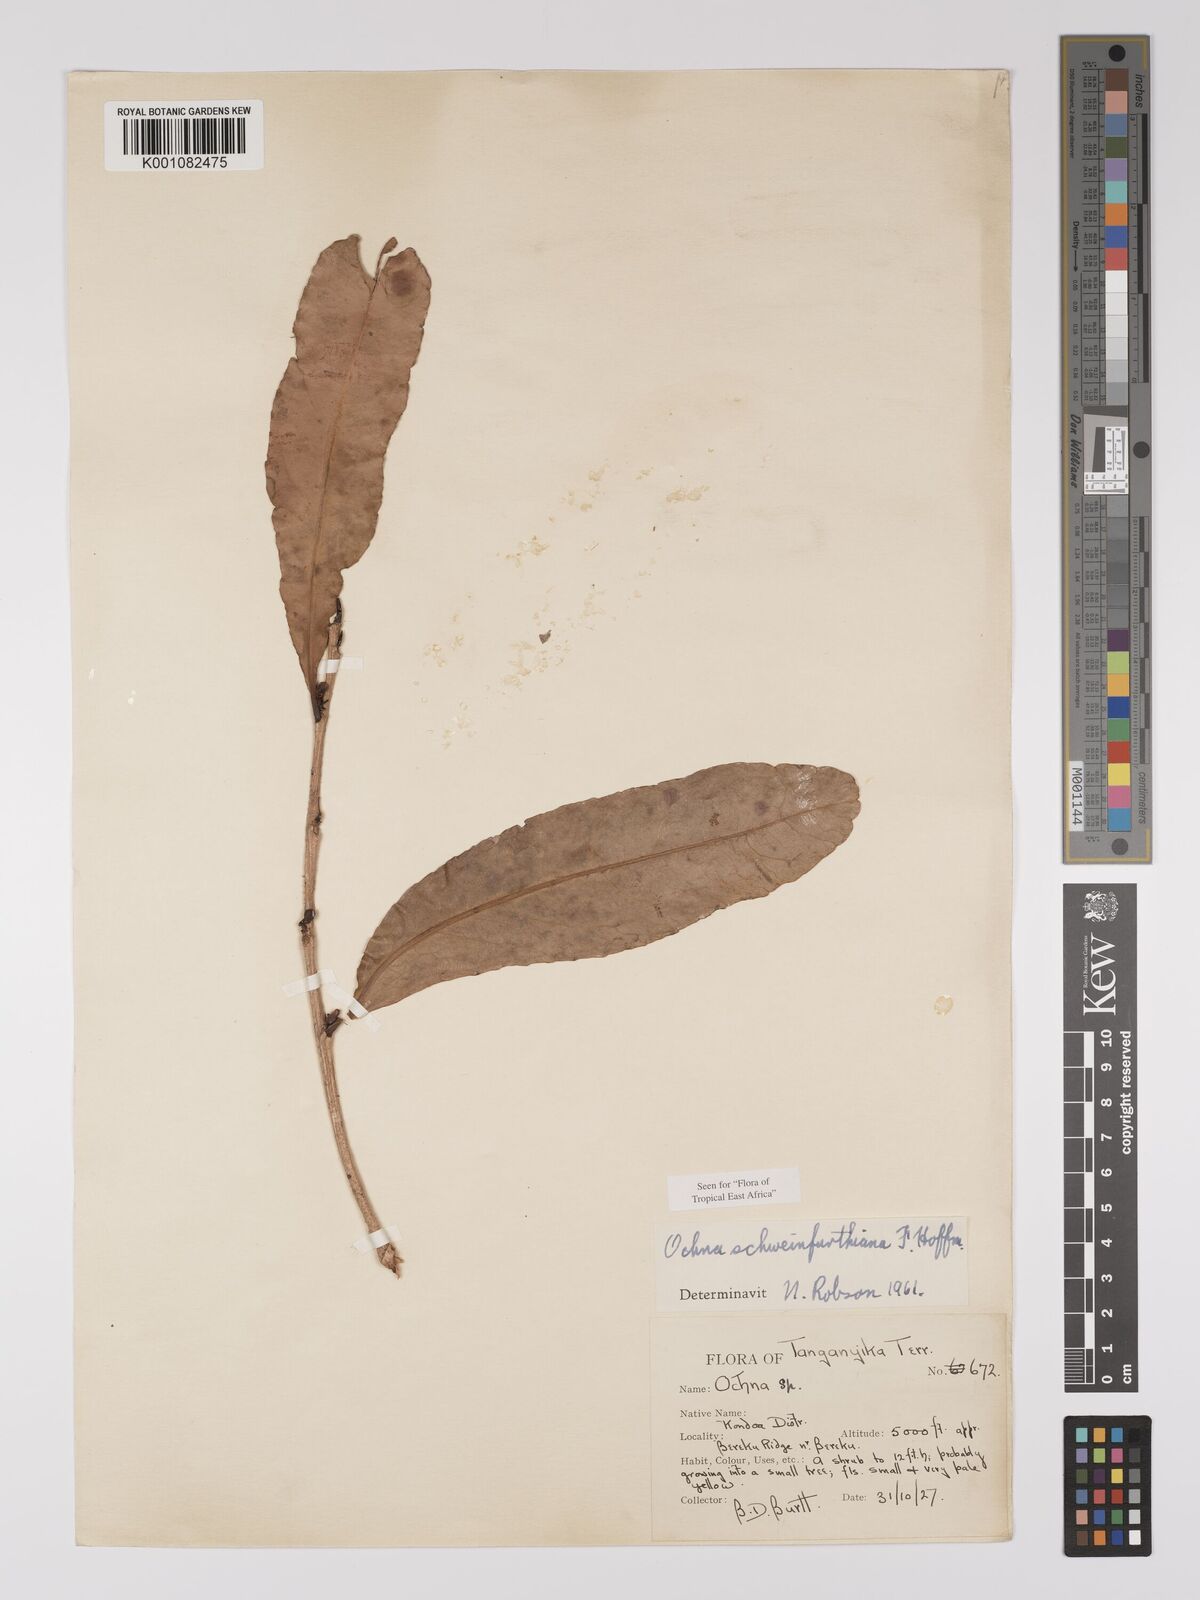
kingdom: Plantae
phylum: Tracheophyta
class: Magnoliopsida
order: Malpighiales
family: Ochnaceae
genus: Ochna
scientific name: Ochna schweinfurthiana
